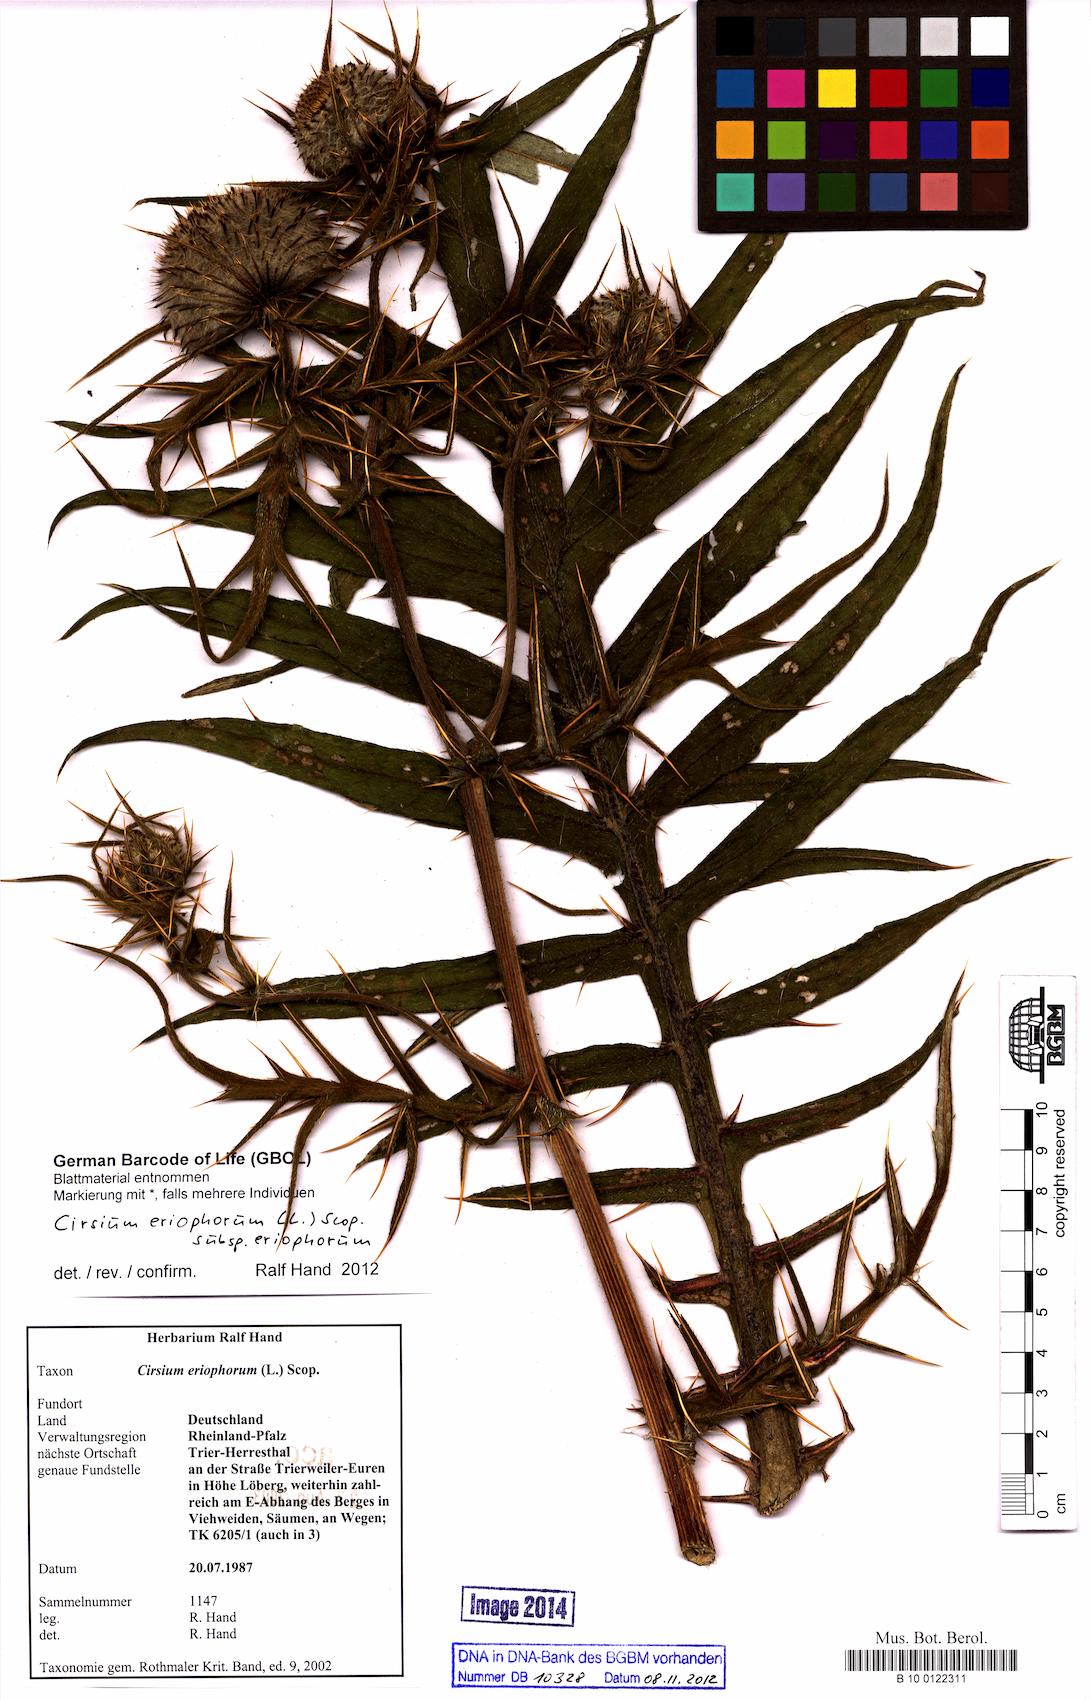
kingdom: Plantae
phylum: Tracheophyta
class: Magnoliopsida
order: Asterales
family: Asteraceae
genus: Lophiolepis
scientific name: Lophiolepis eriophora
